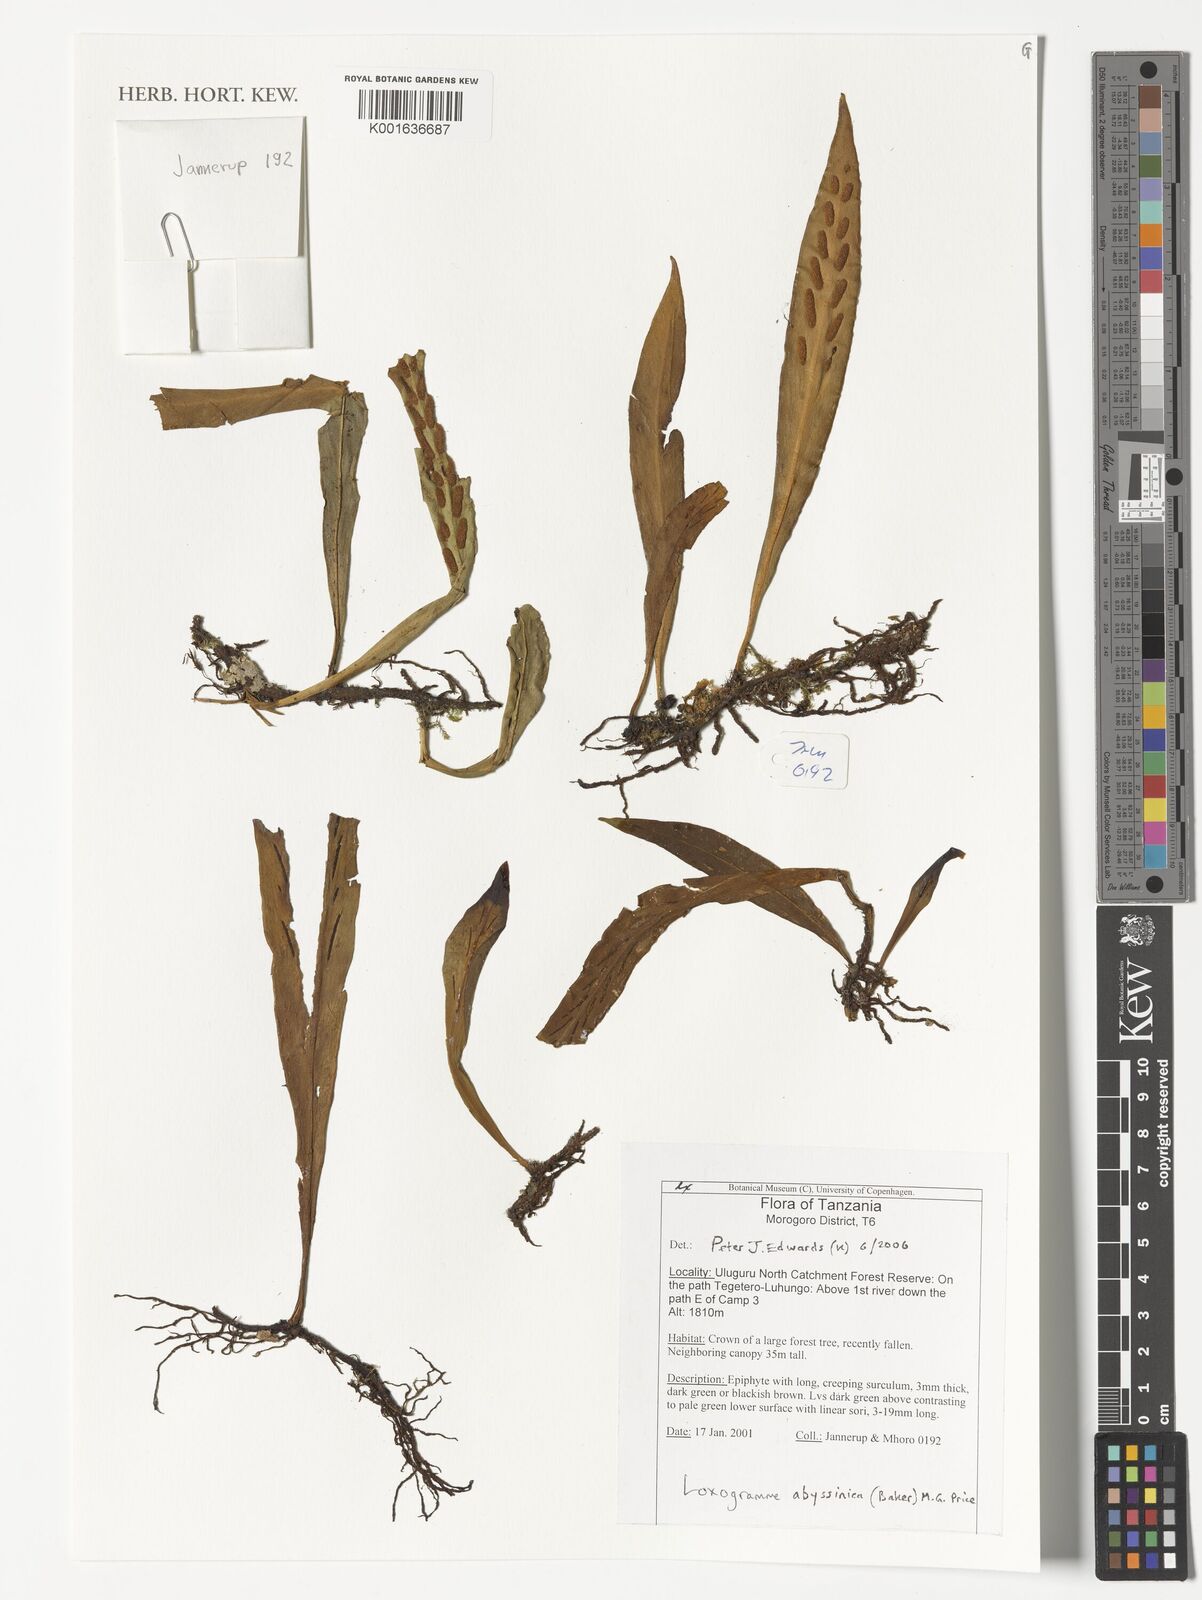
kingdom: Plantae
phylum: Tracheophyta
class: Polypodiopsida
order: Polypodiales
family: Polypodiaceae
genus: Loxogramme
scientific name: Loxogramme abyssinica
